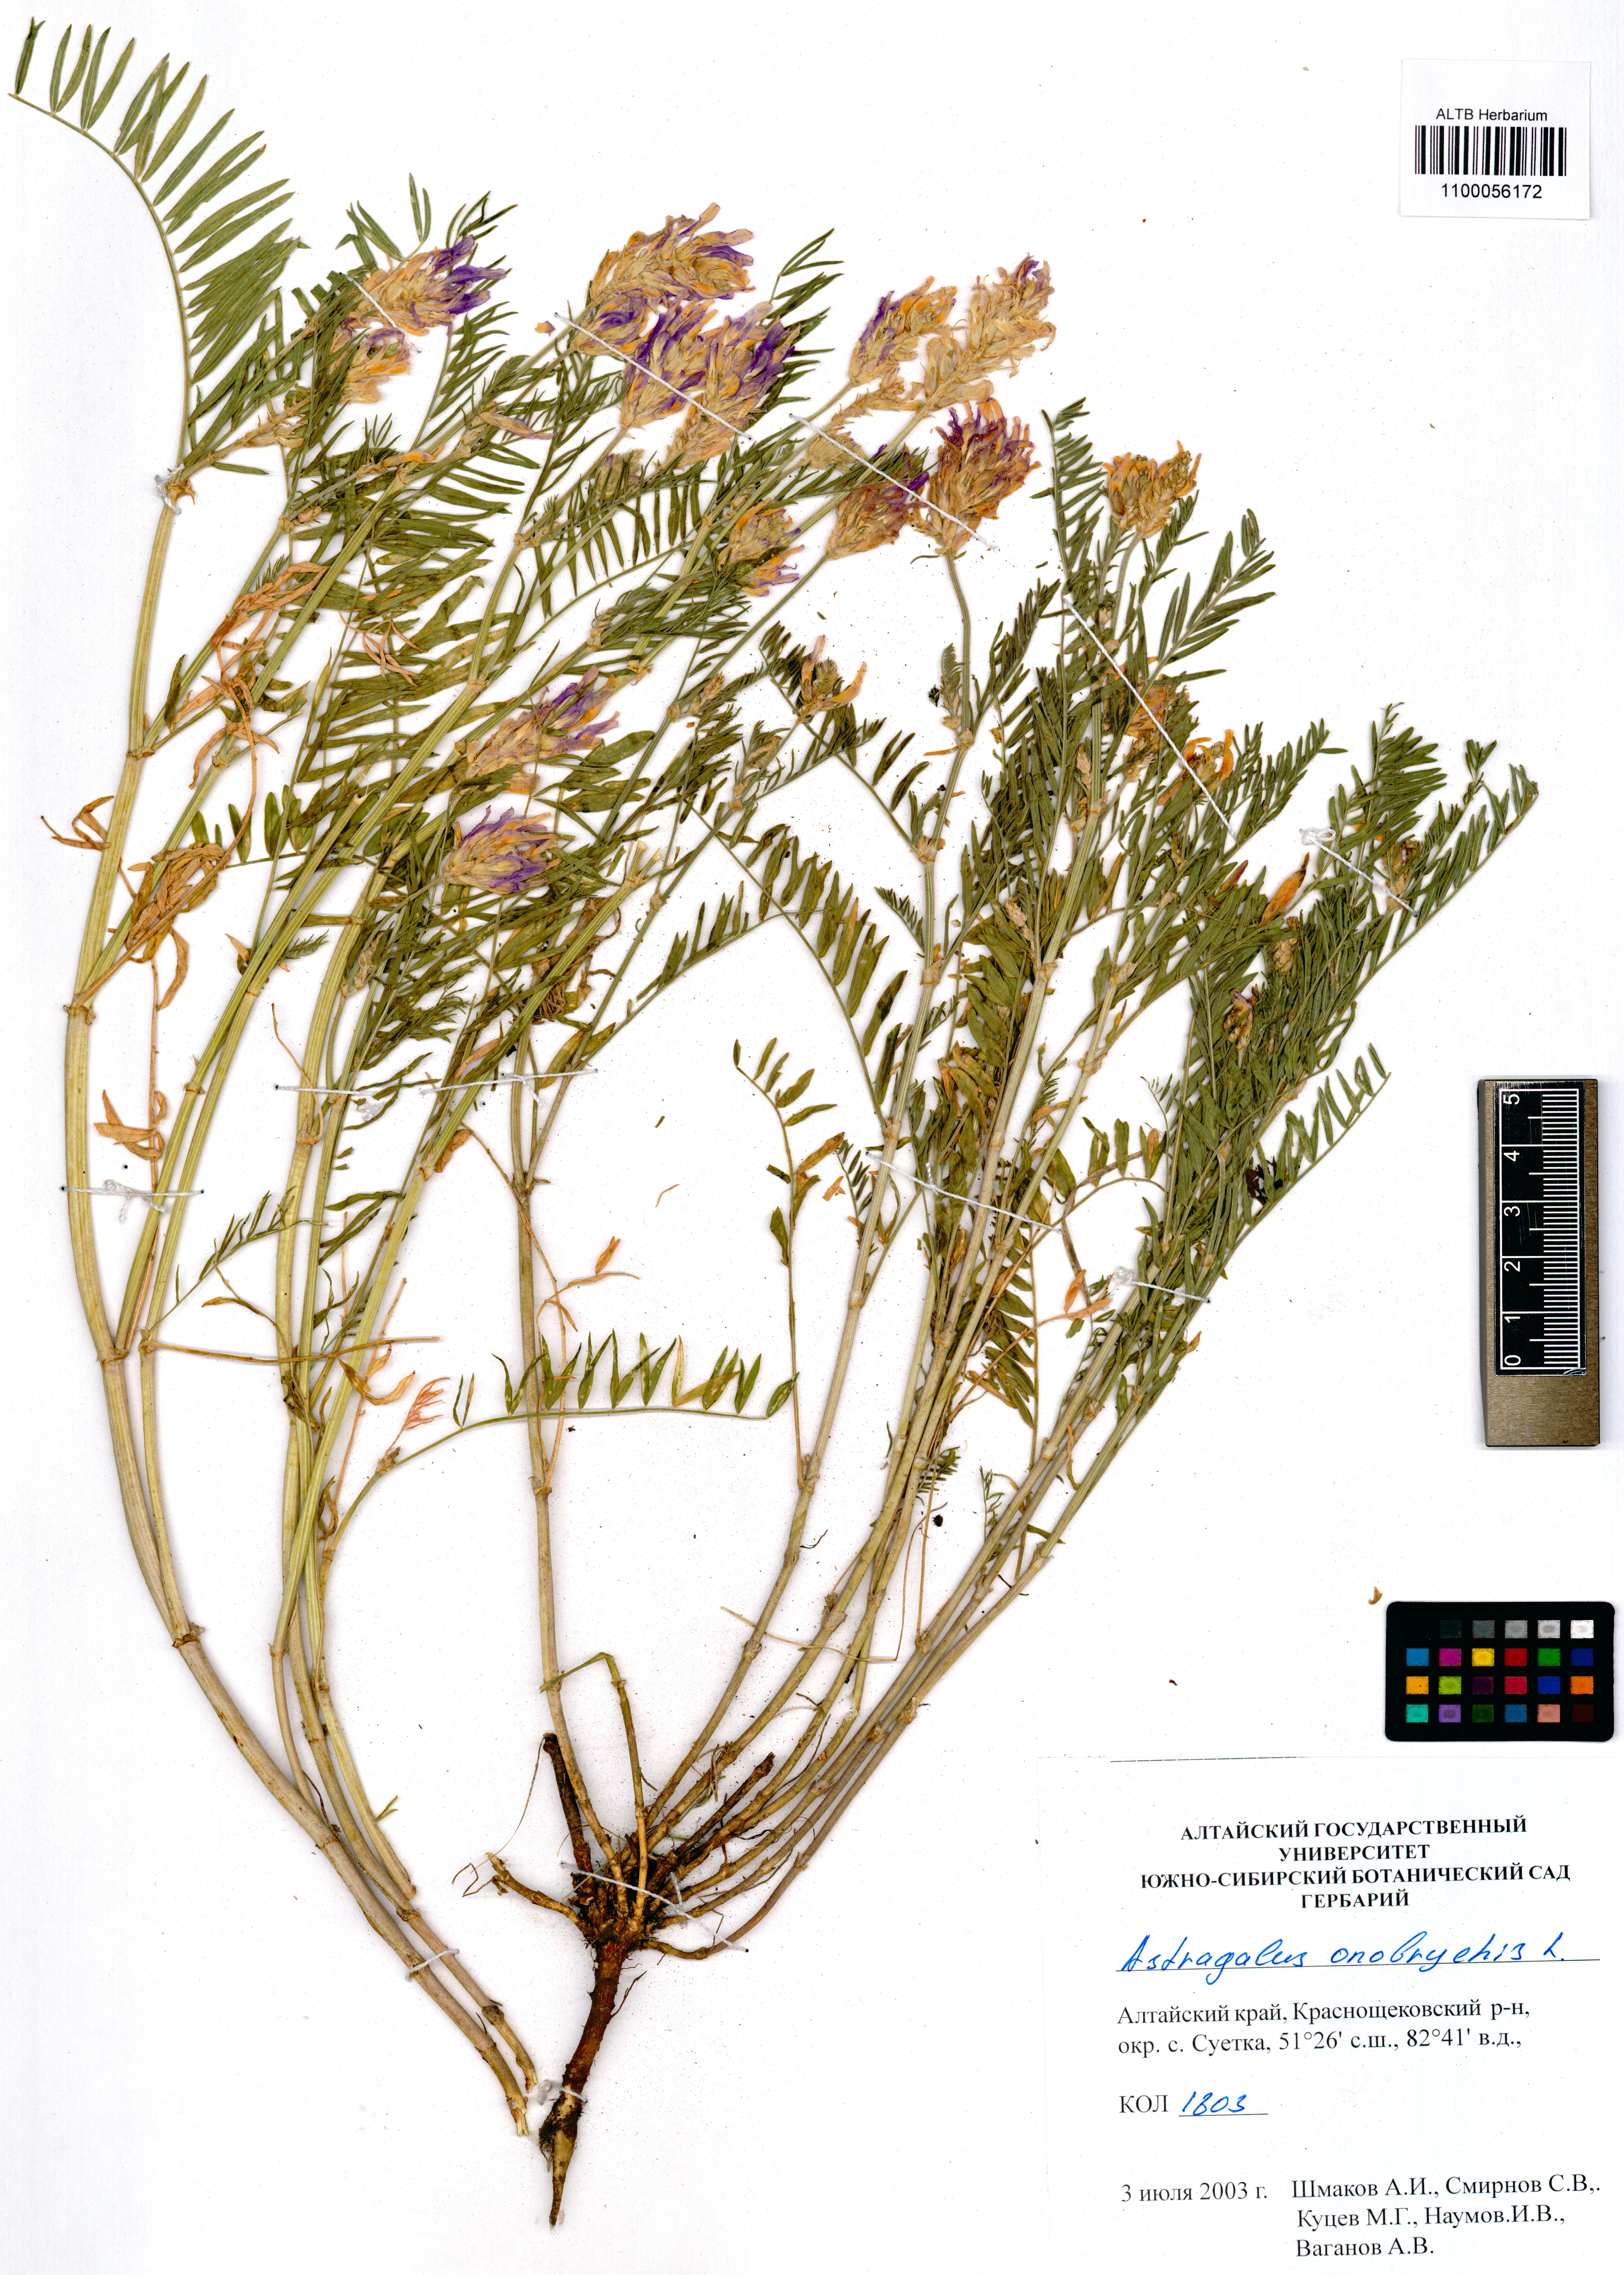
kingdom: Plantae
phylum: Tracheophyta
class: Magnoliopsida
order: Fabales
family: Fabaceae
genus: Astragalus
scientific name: Astragalus onobrychis
